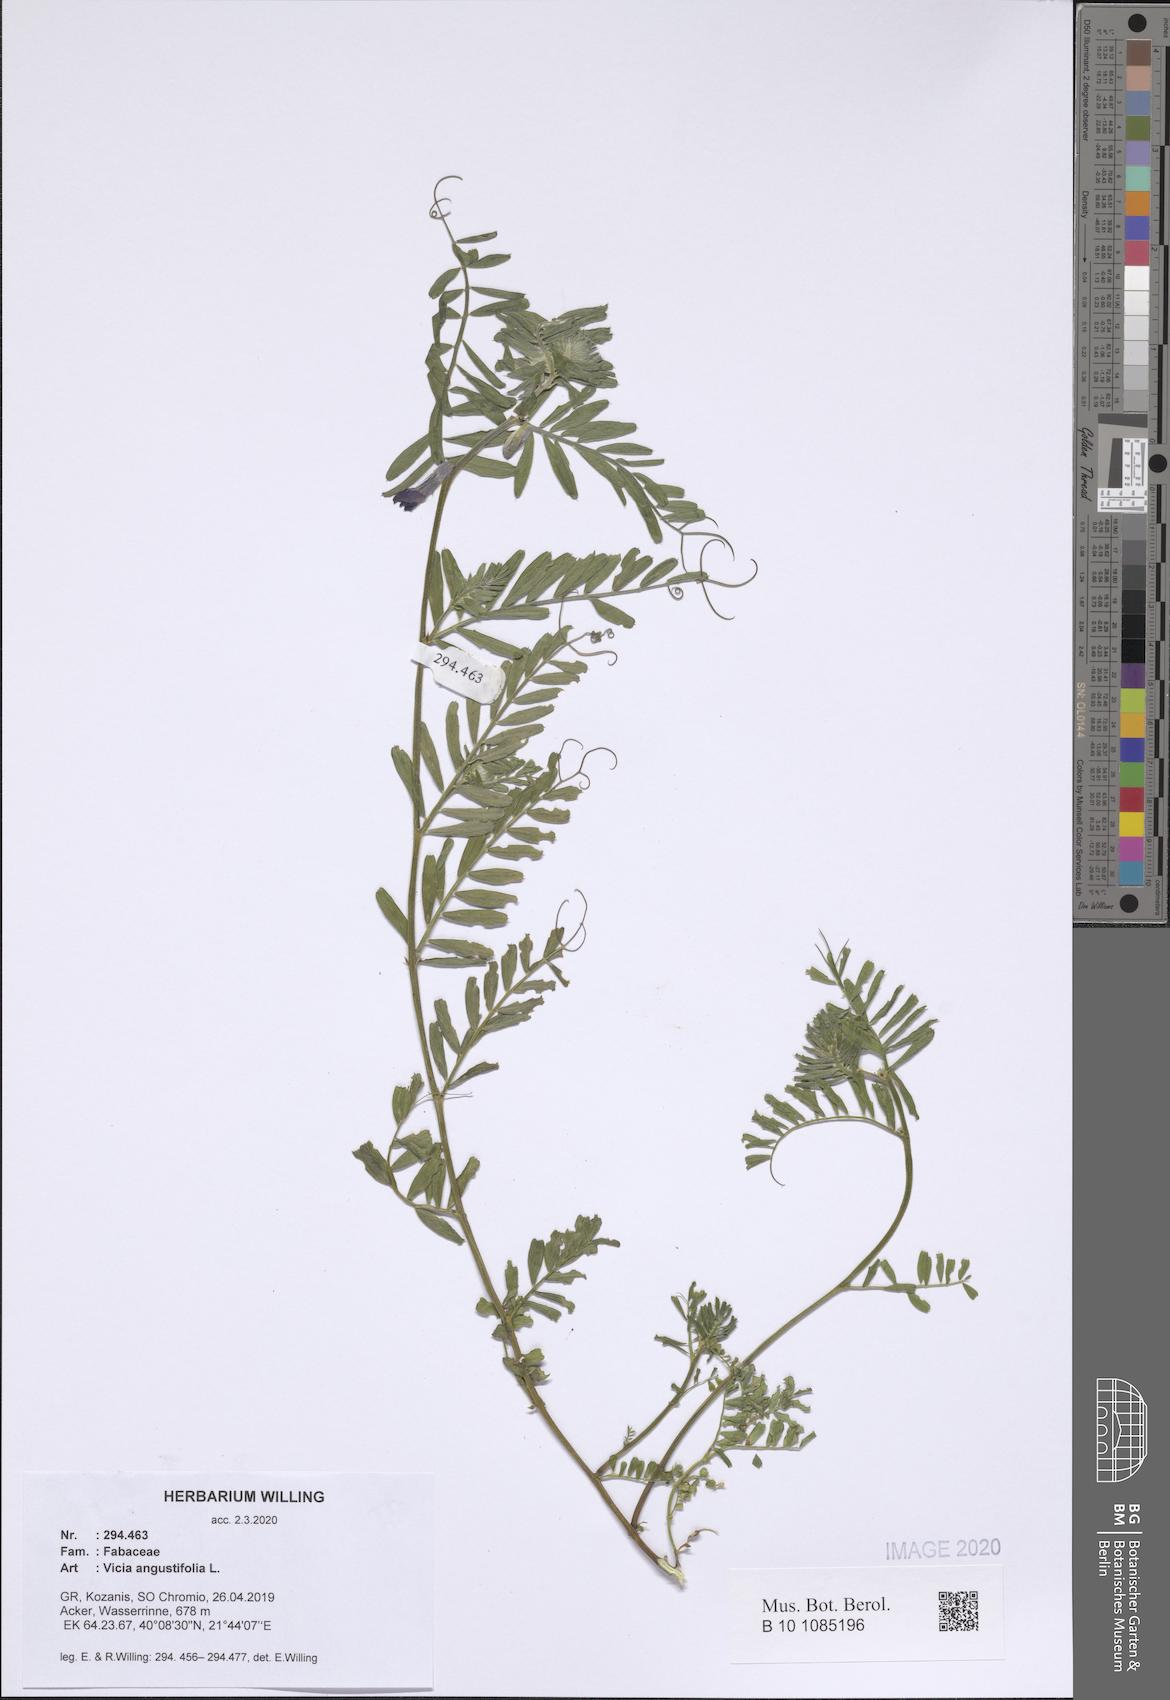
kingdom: Plantae
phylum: Tracheophyta
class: Magnoliopsida
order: Fabales
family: Fabaceae
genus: Vicia
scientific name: Vicia sativa
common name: Garden vetch
